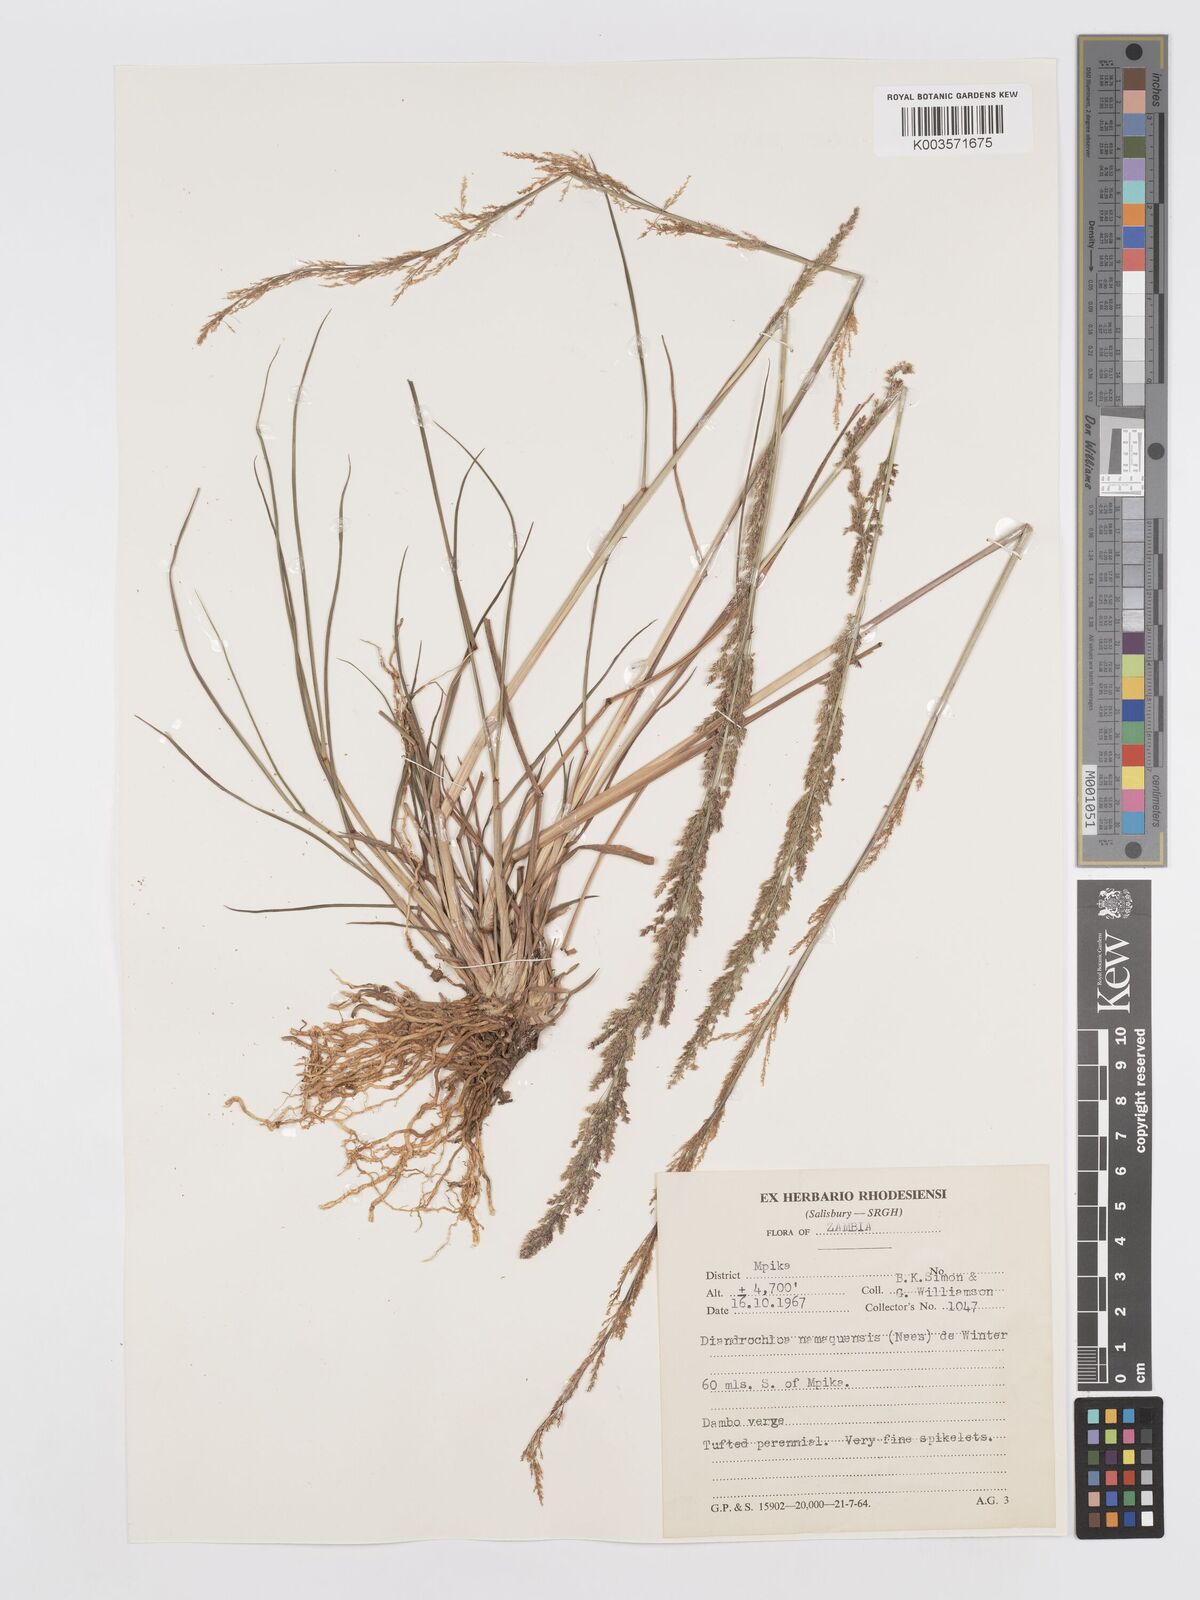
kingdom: Plantae
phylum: Tracheophyta
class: Liliopsida
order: Poales
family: Poaceae
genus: Eragrostis
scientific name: Eragrostis japonica
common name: Pond lovegrass
